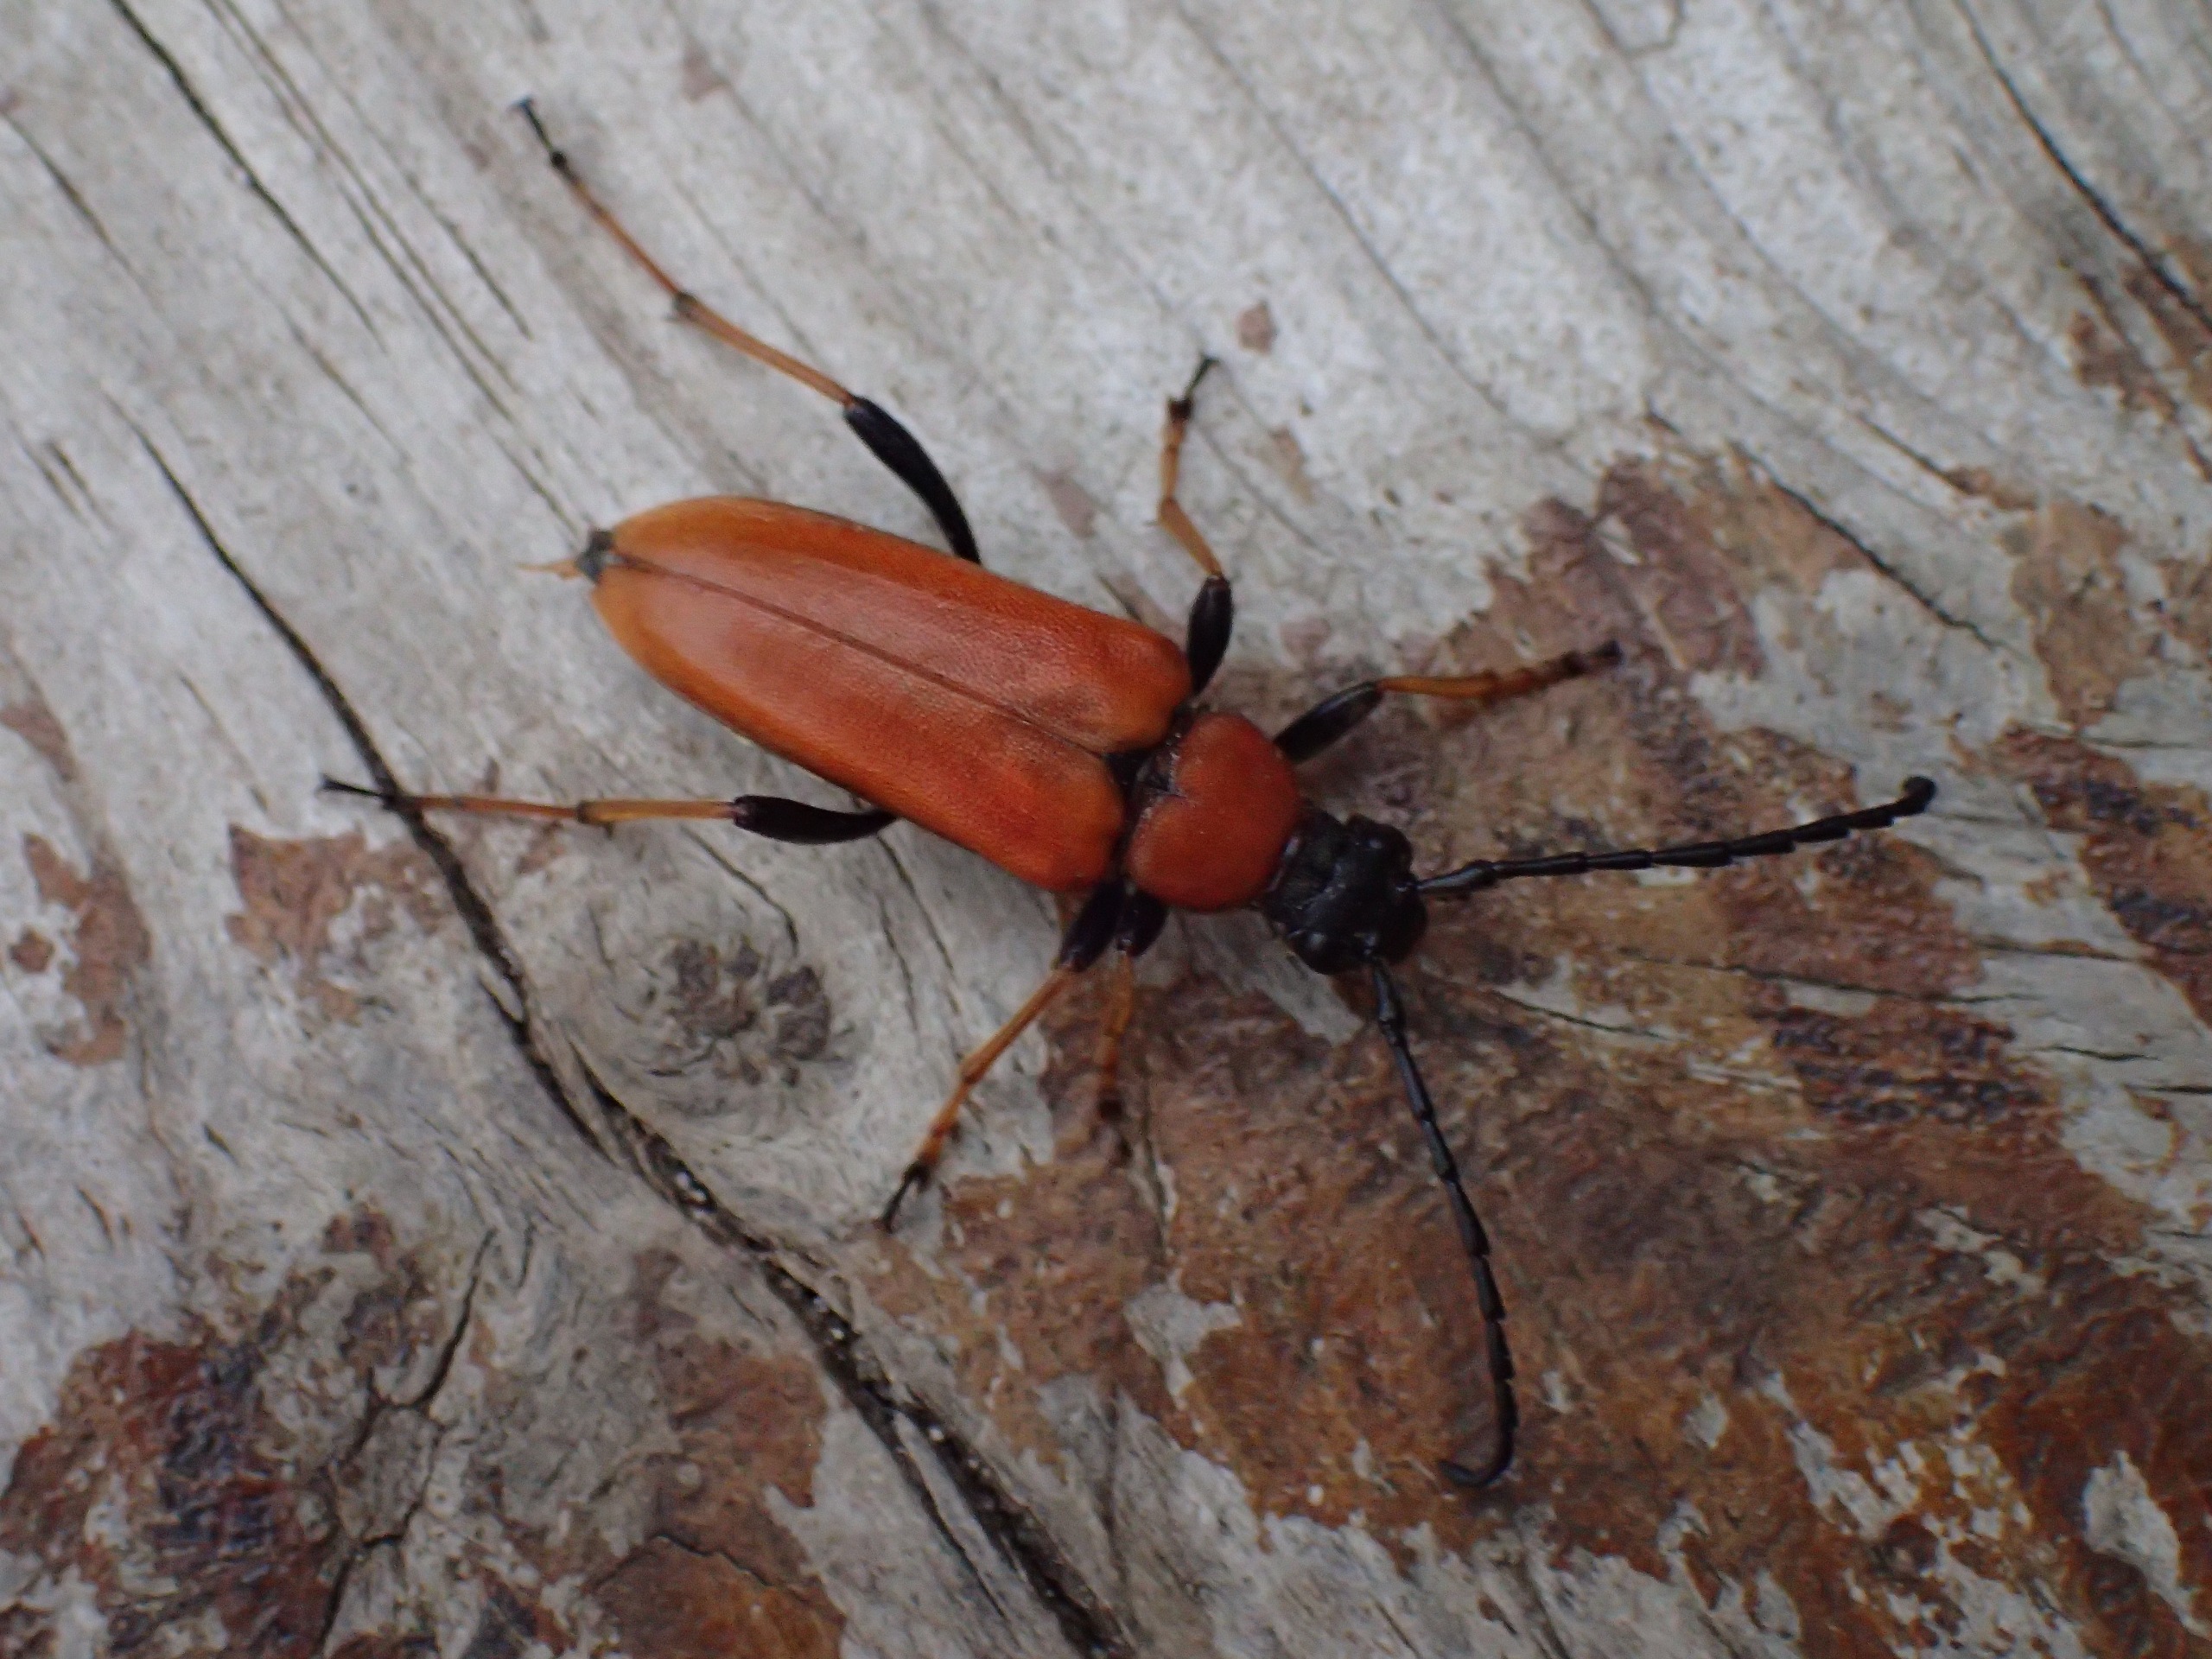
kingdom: Animalia
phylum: Arthropoda
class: Insecta
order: Coleoptera
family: Cerambycidae
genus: Stictoleptura
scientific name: Stictoleptura rubra
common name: Rød blomsterbuk
